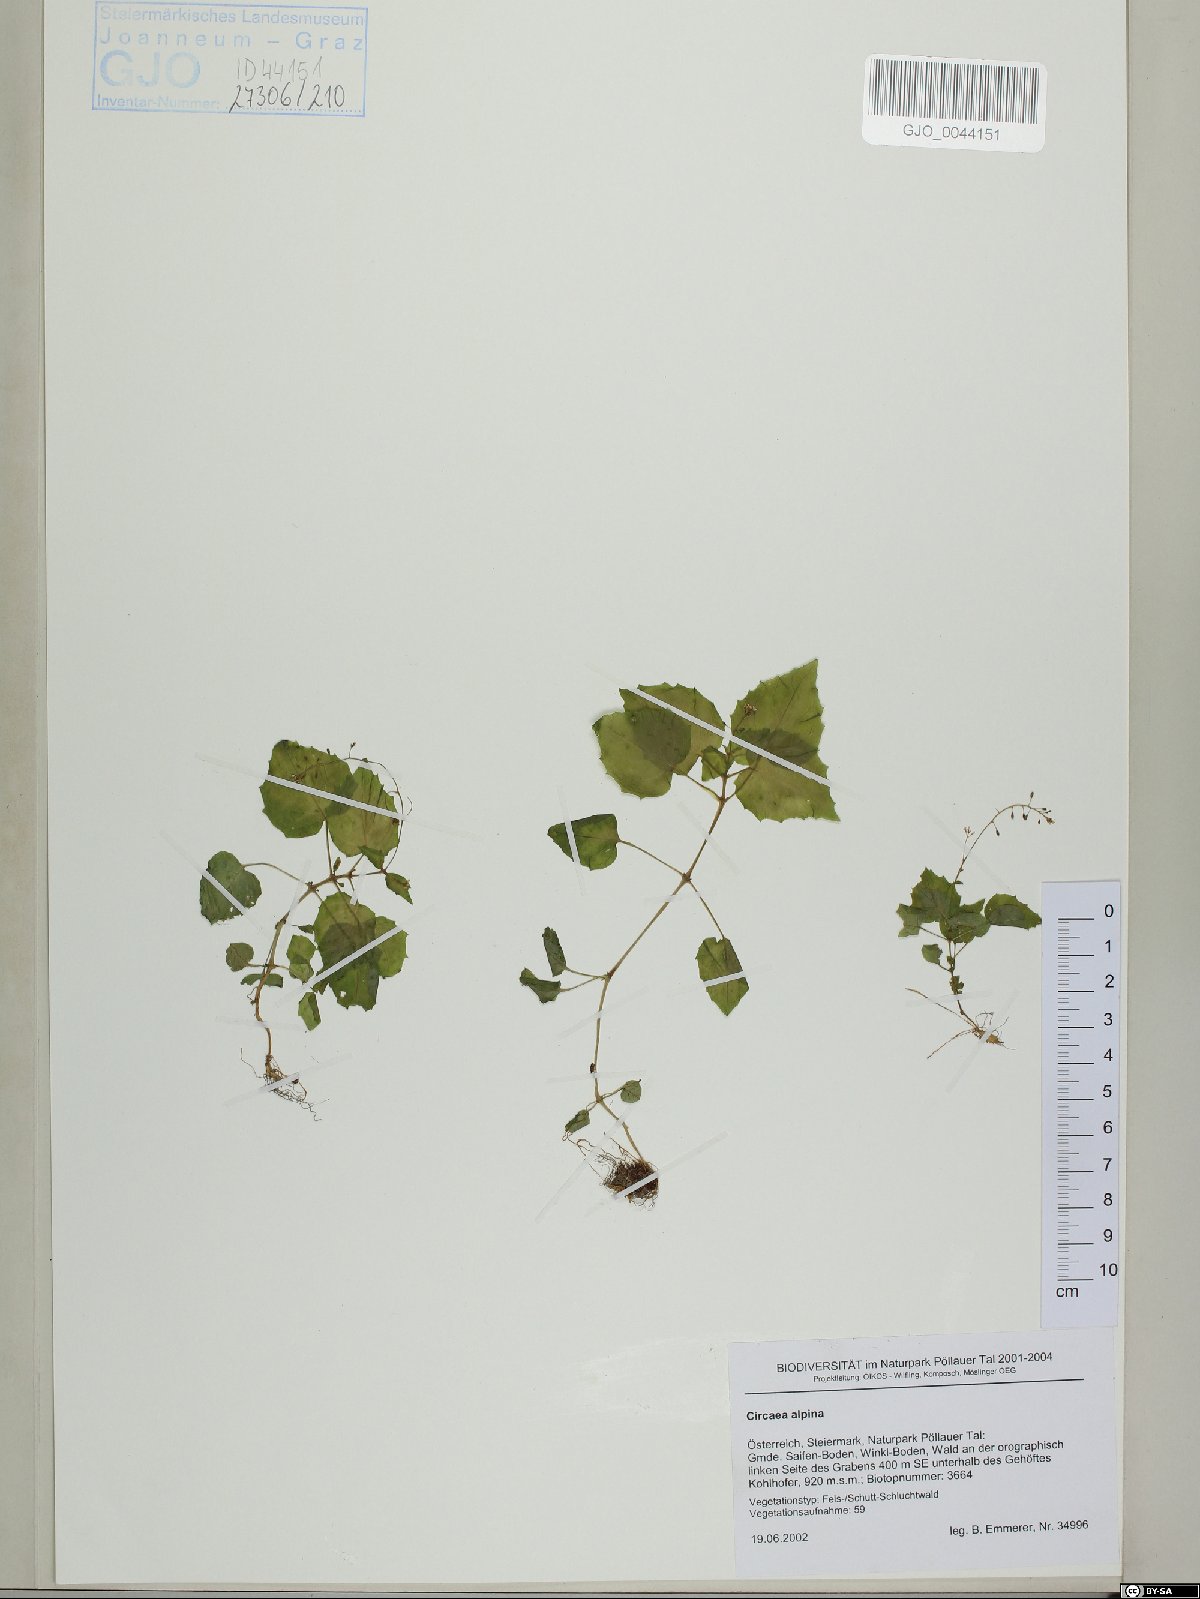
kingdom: Plantae
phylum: Tracheophyta
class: Magnoliopsida
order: Myrtales
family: Onagraceae
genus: Circaea
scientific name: Circaea alpina
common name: Alpine enchanter's-nightshade
